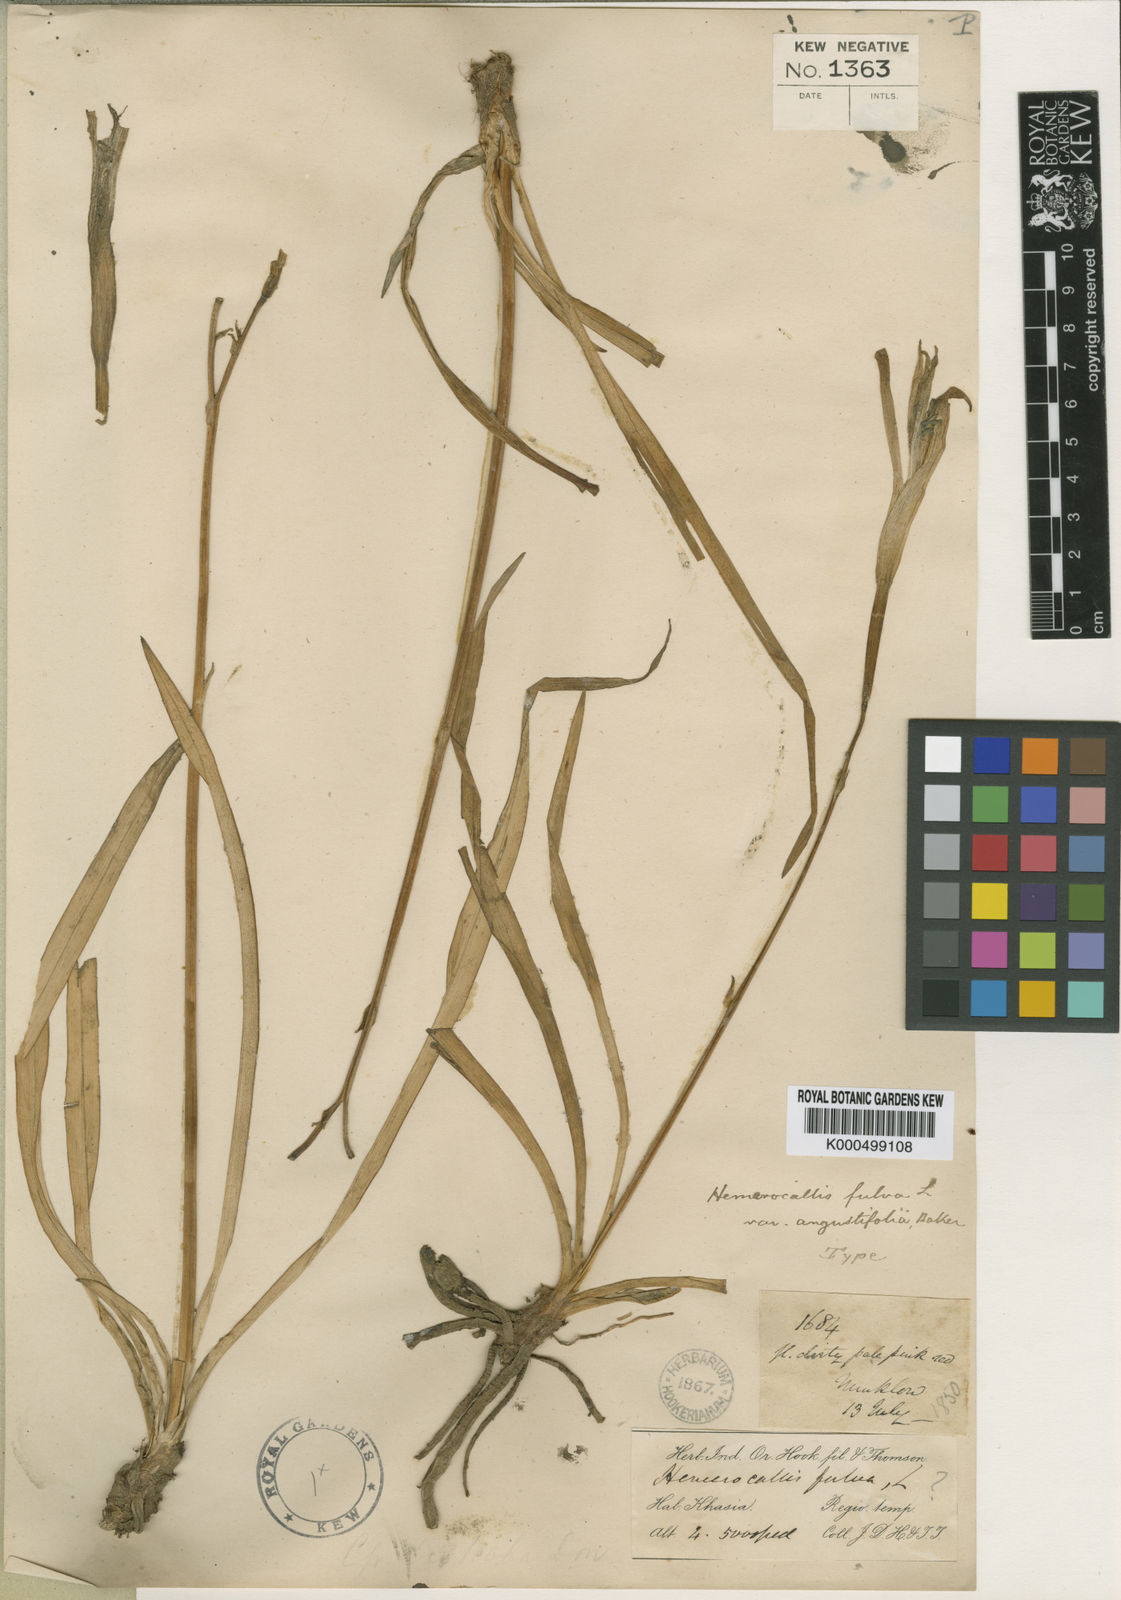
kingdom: Plantae
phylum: Tracheophyta
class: Liliopsida
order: Asparagales
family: Asphodelaceae
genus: Hemerocallis
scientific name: Hemerocallis fulva
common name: Orange day-lily
